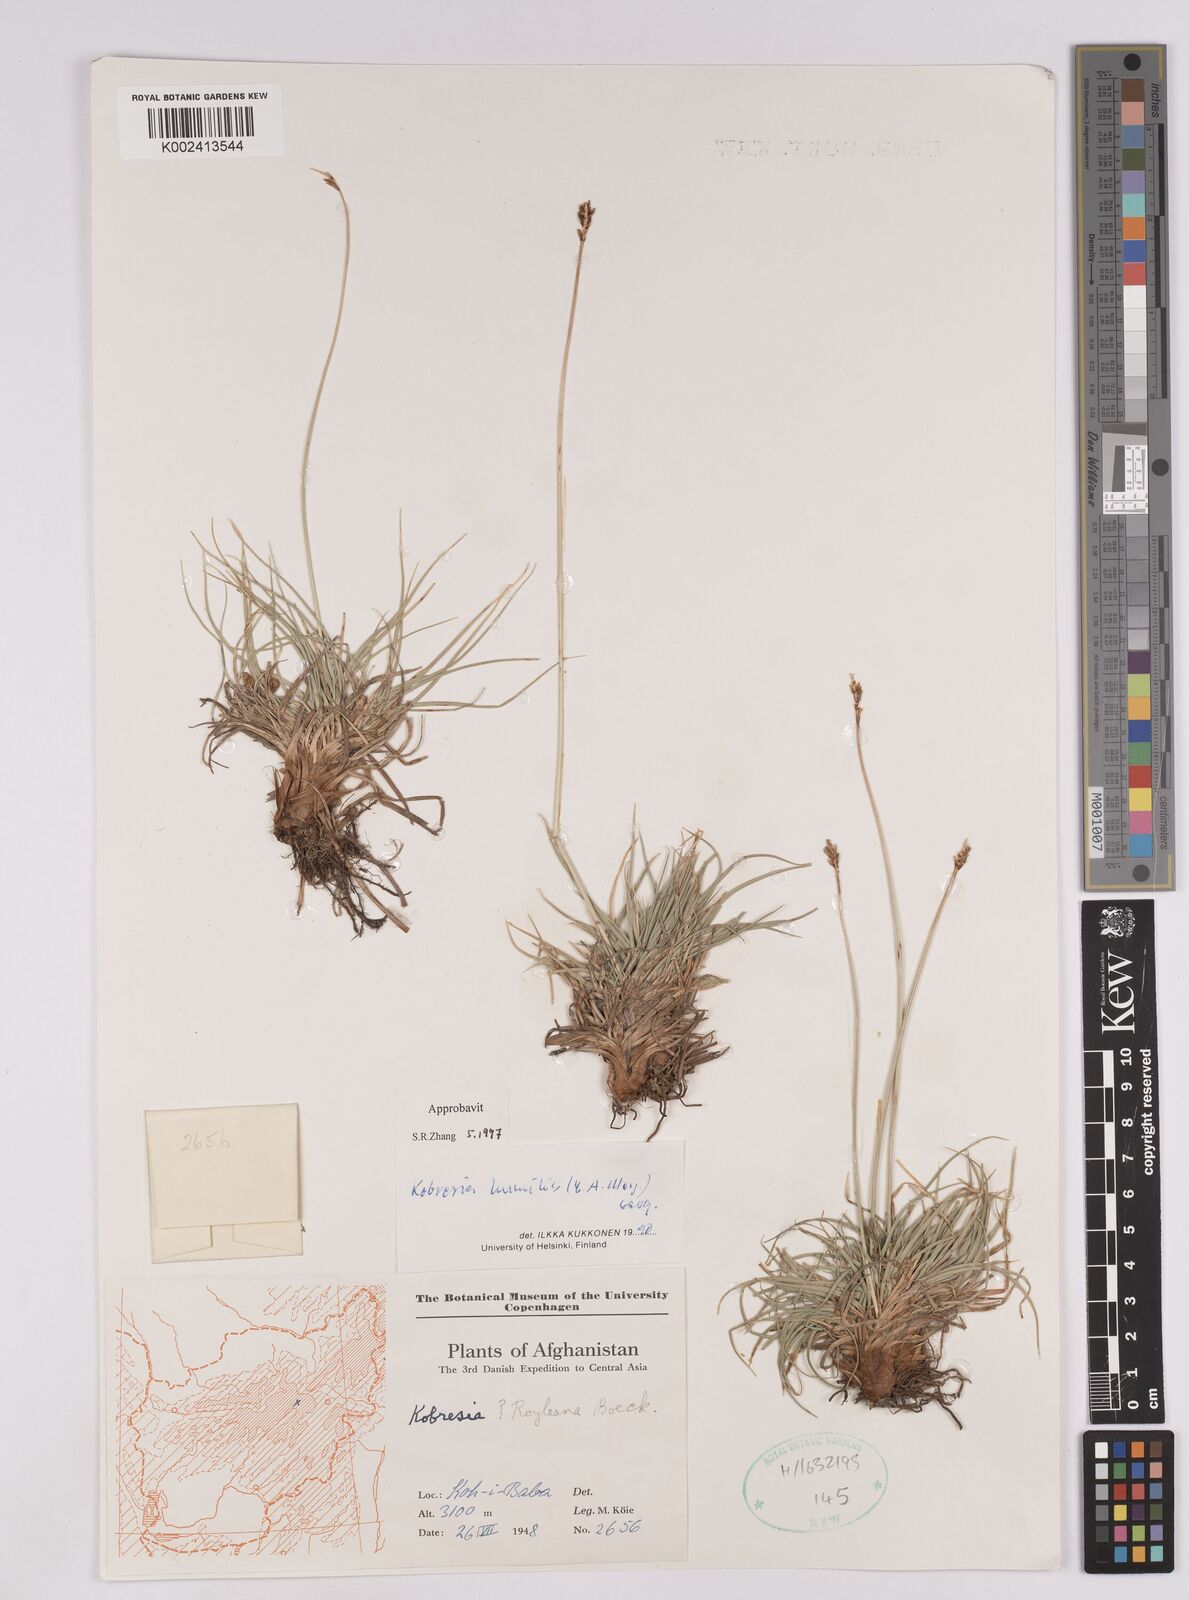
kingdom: Plantae
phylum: Tracheophyta
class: Liliopsida
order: Poales
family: Cyperaceae
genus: Carex
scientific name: Carex alatauensis
